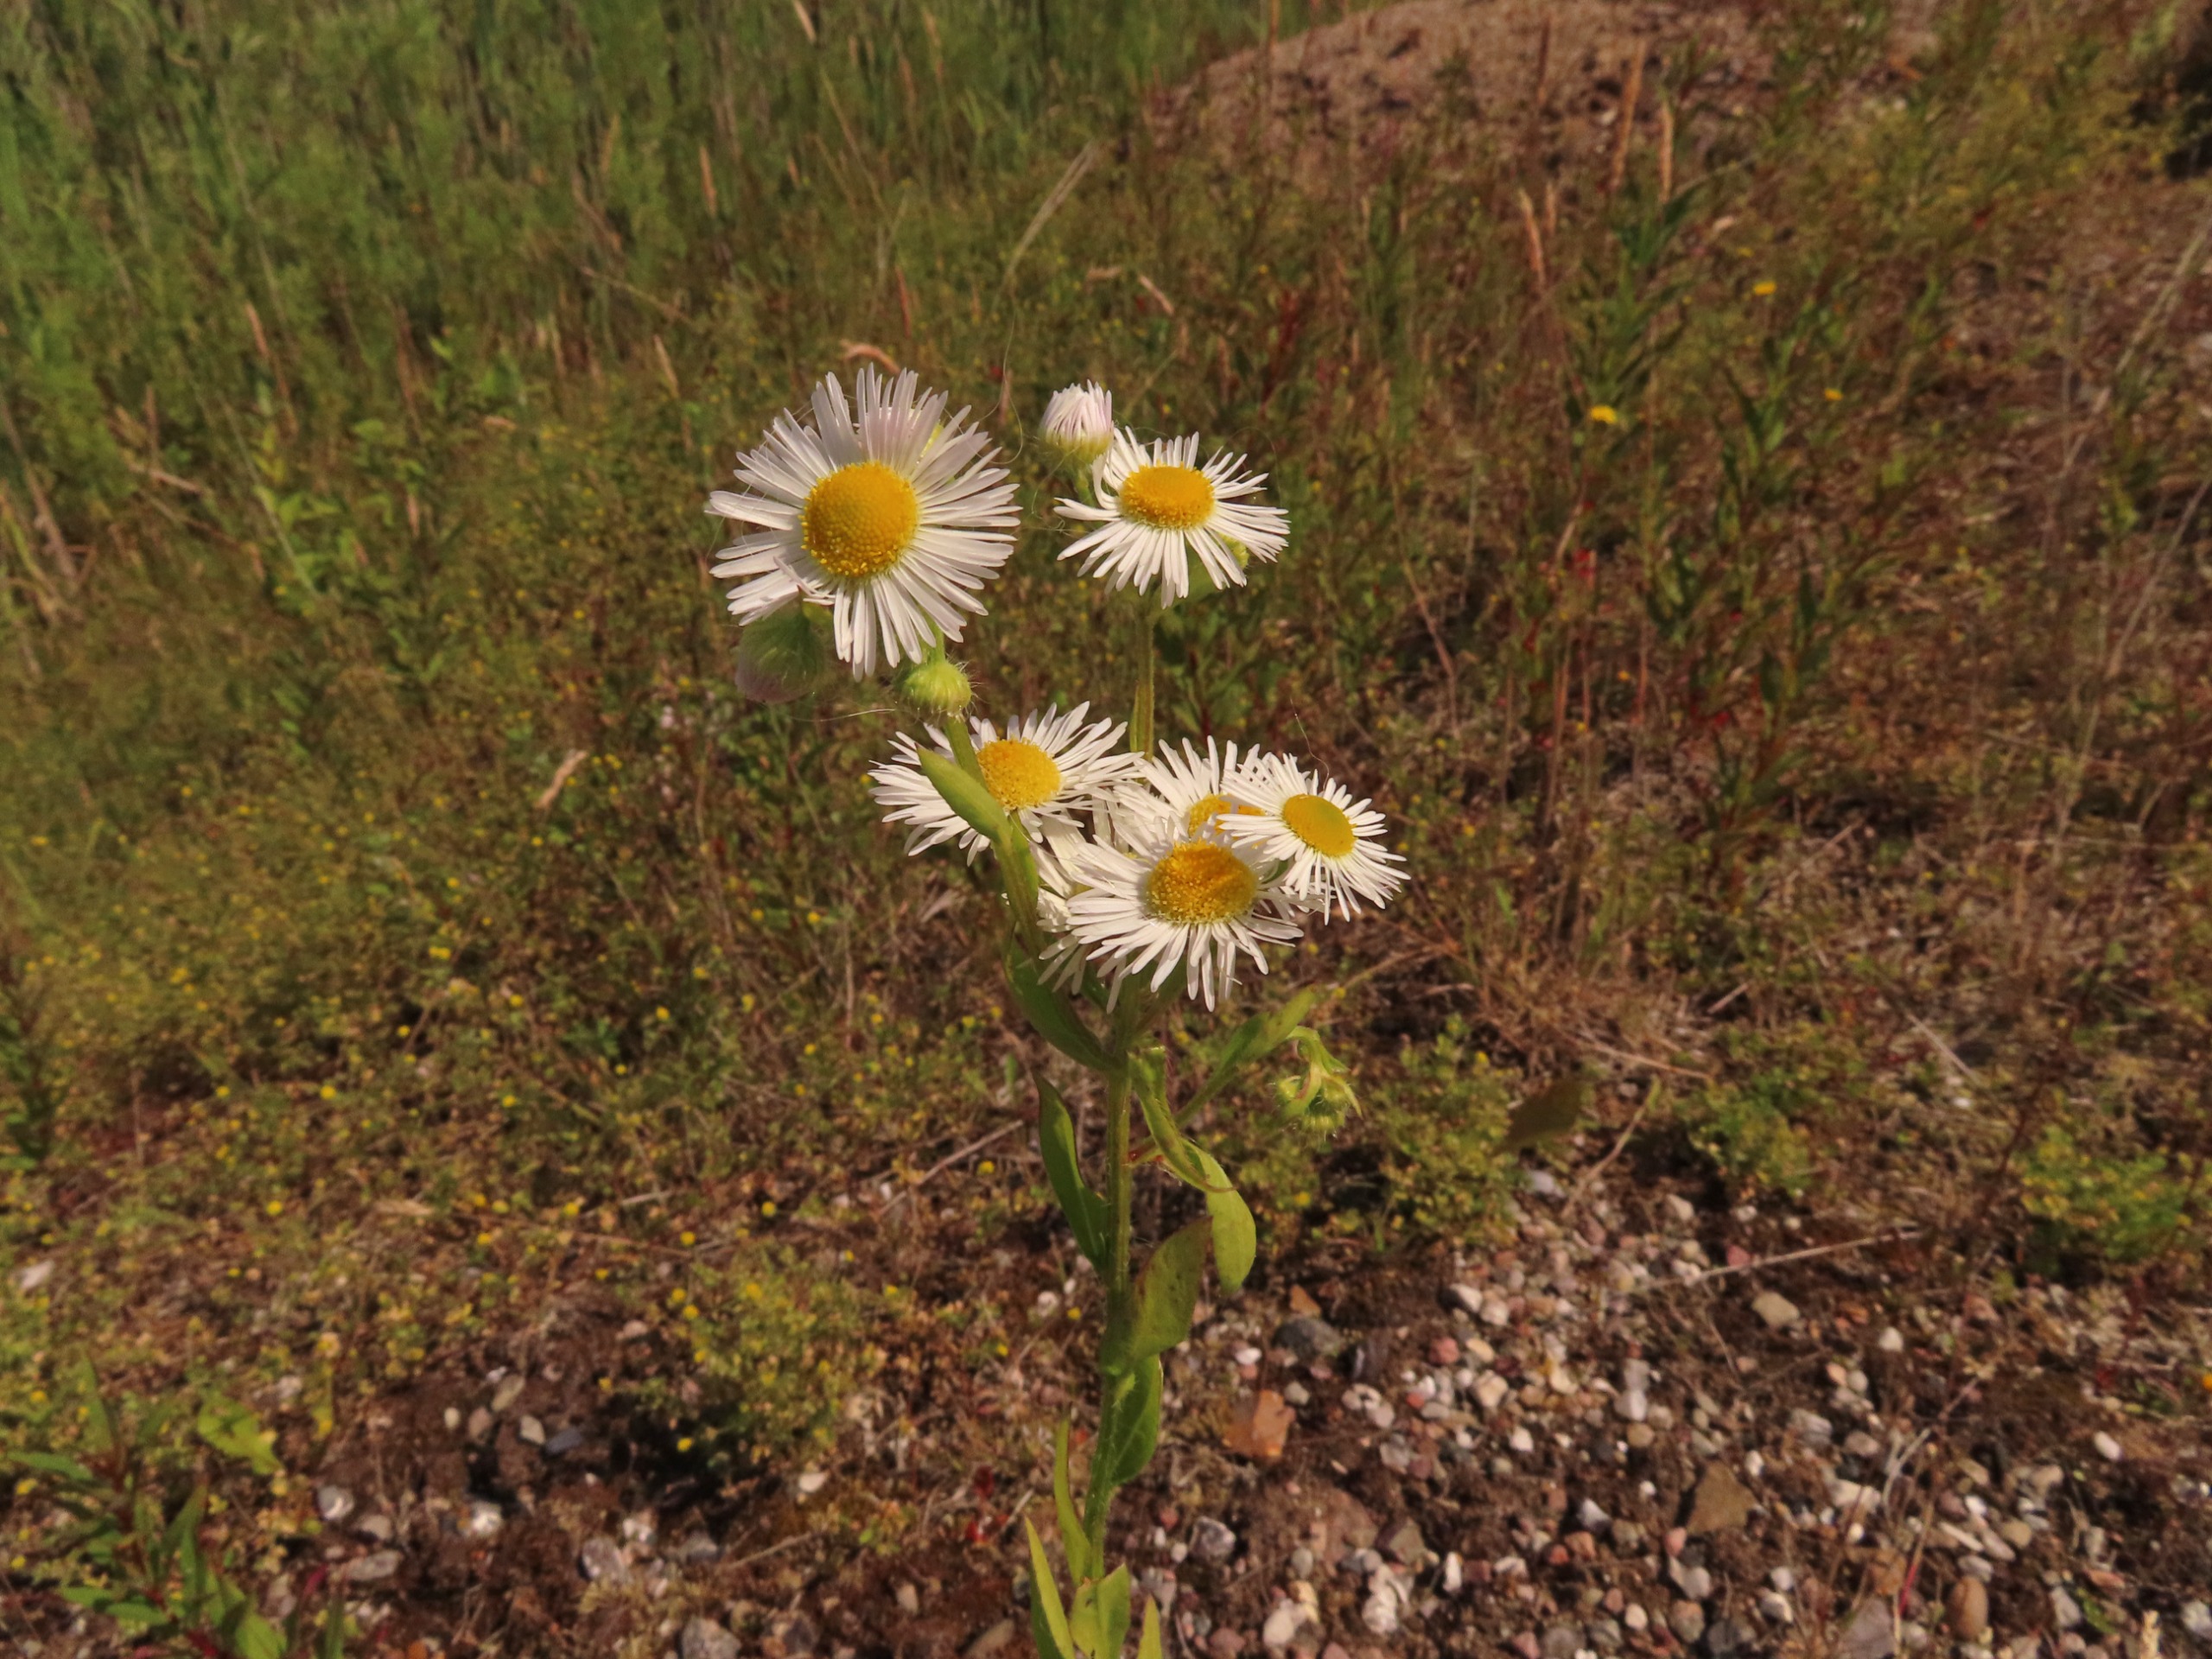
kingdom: Plantae
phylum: Tracheophyta
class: Magnoliopsida
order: Asterales
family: Asteraceae
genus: Erigeron
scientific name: Erigeron annuus
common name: Smalstråle
